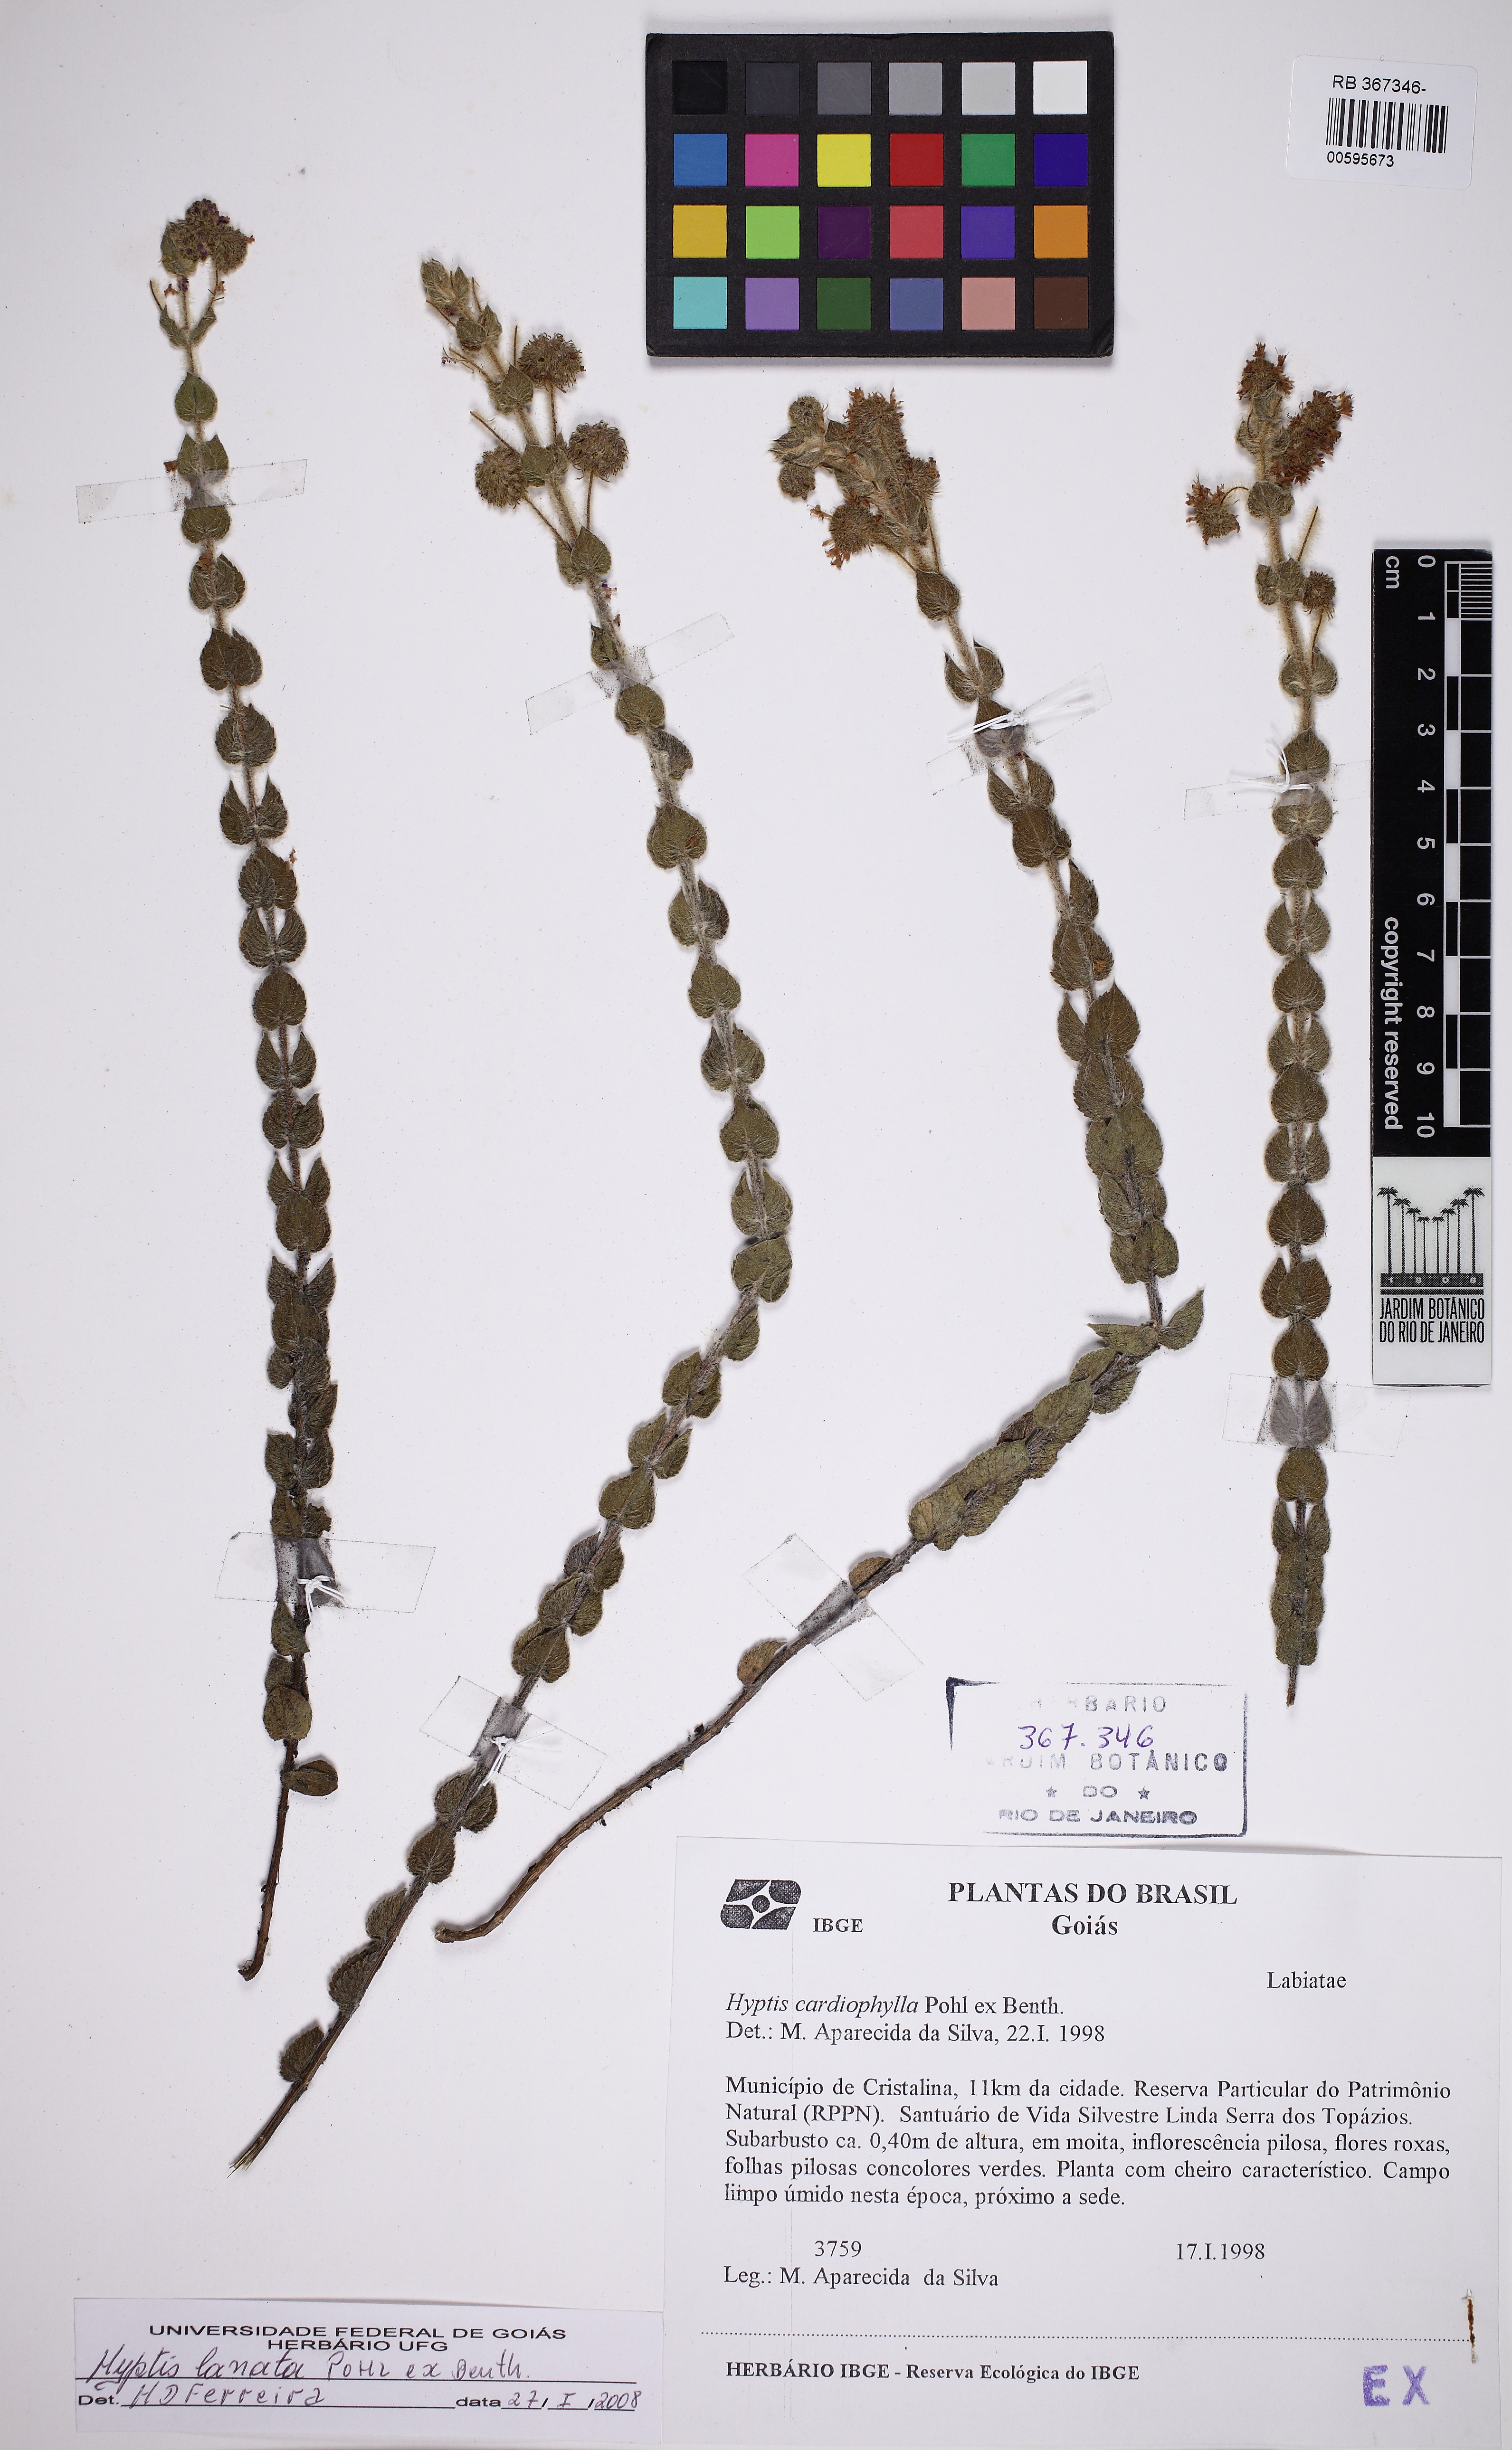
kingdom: Plantae
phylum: Tracheophyta
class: Magnoliopsida
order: Lamiales
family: Lamiaceae
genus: Cyanocephalus
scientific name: Cyanocephalus cardiophyllus
